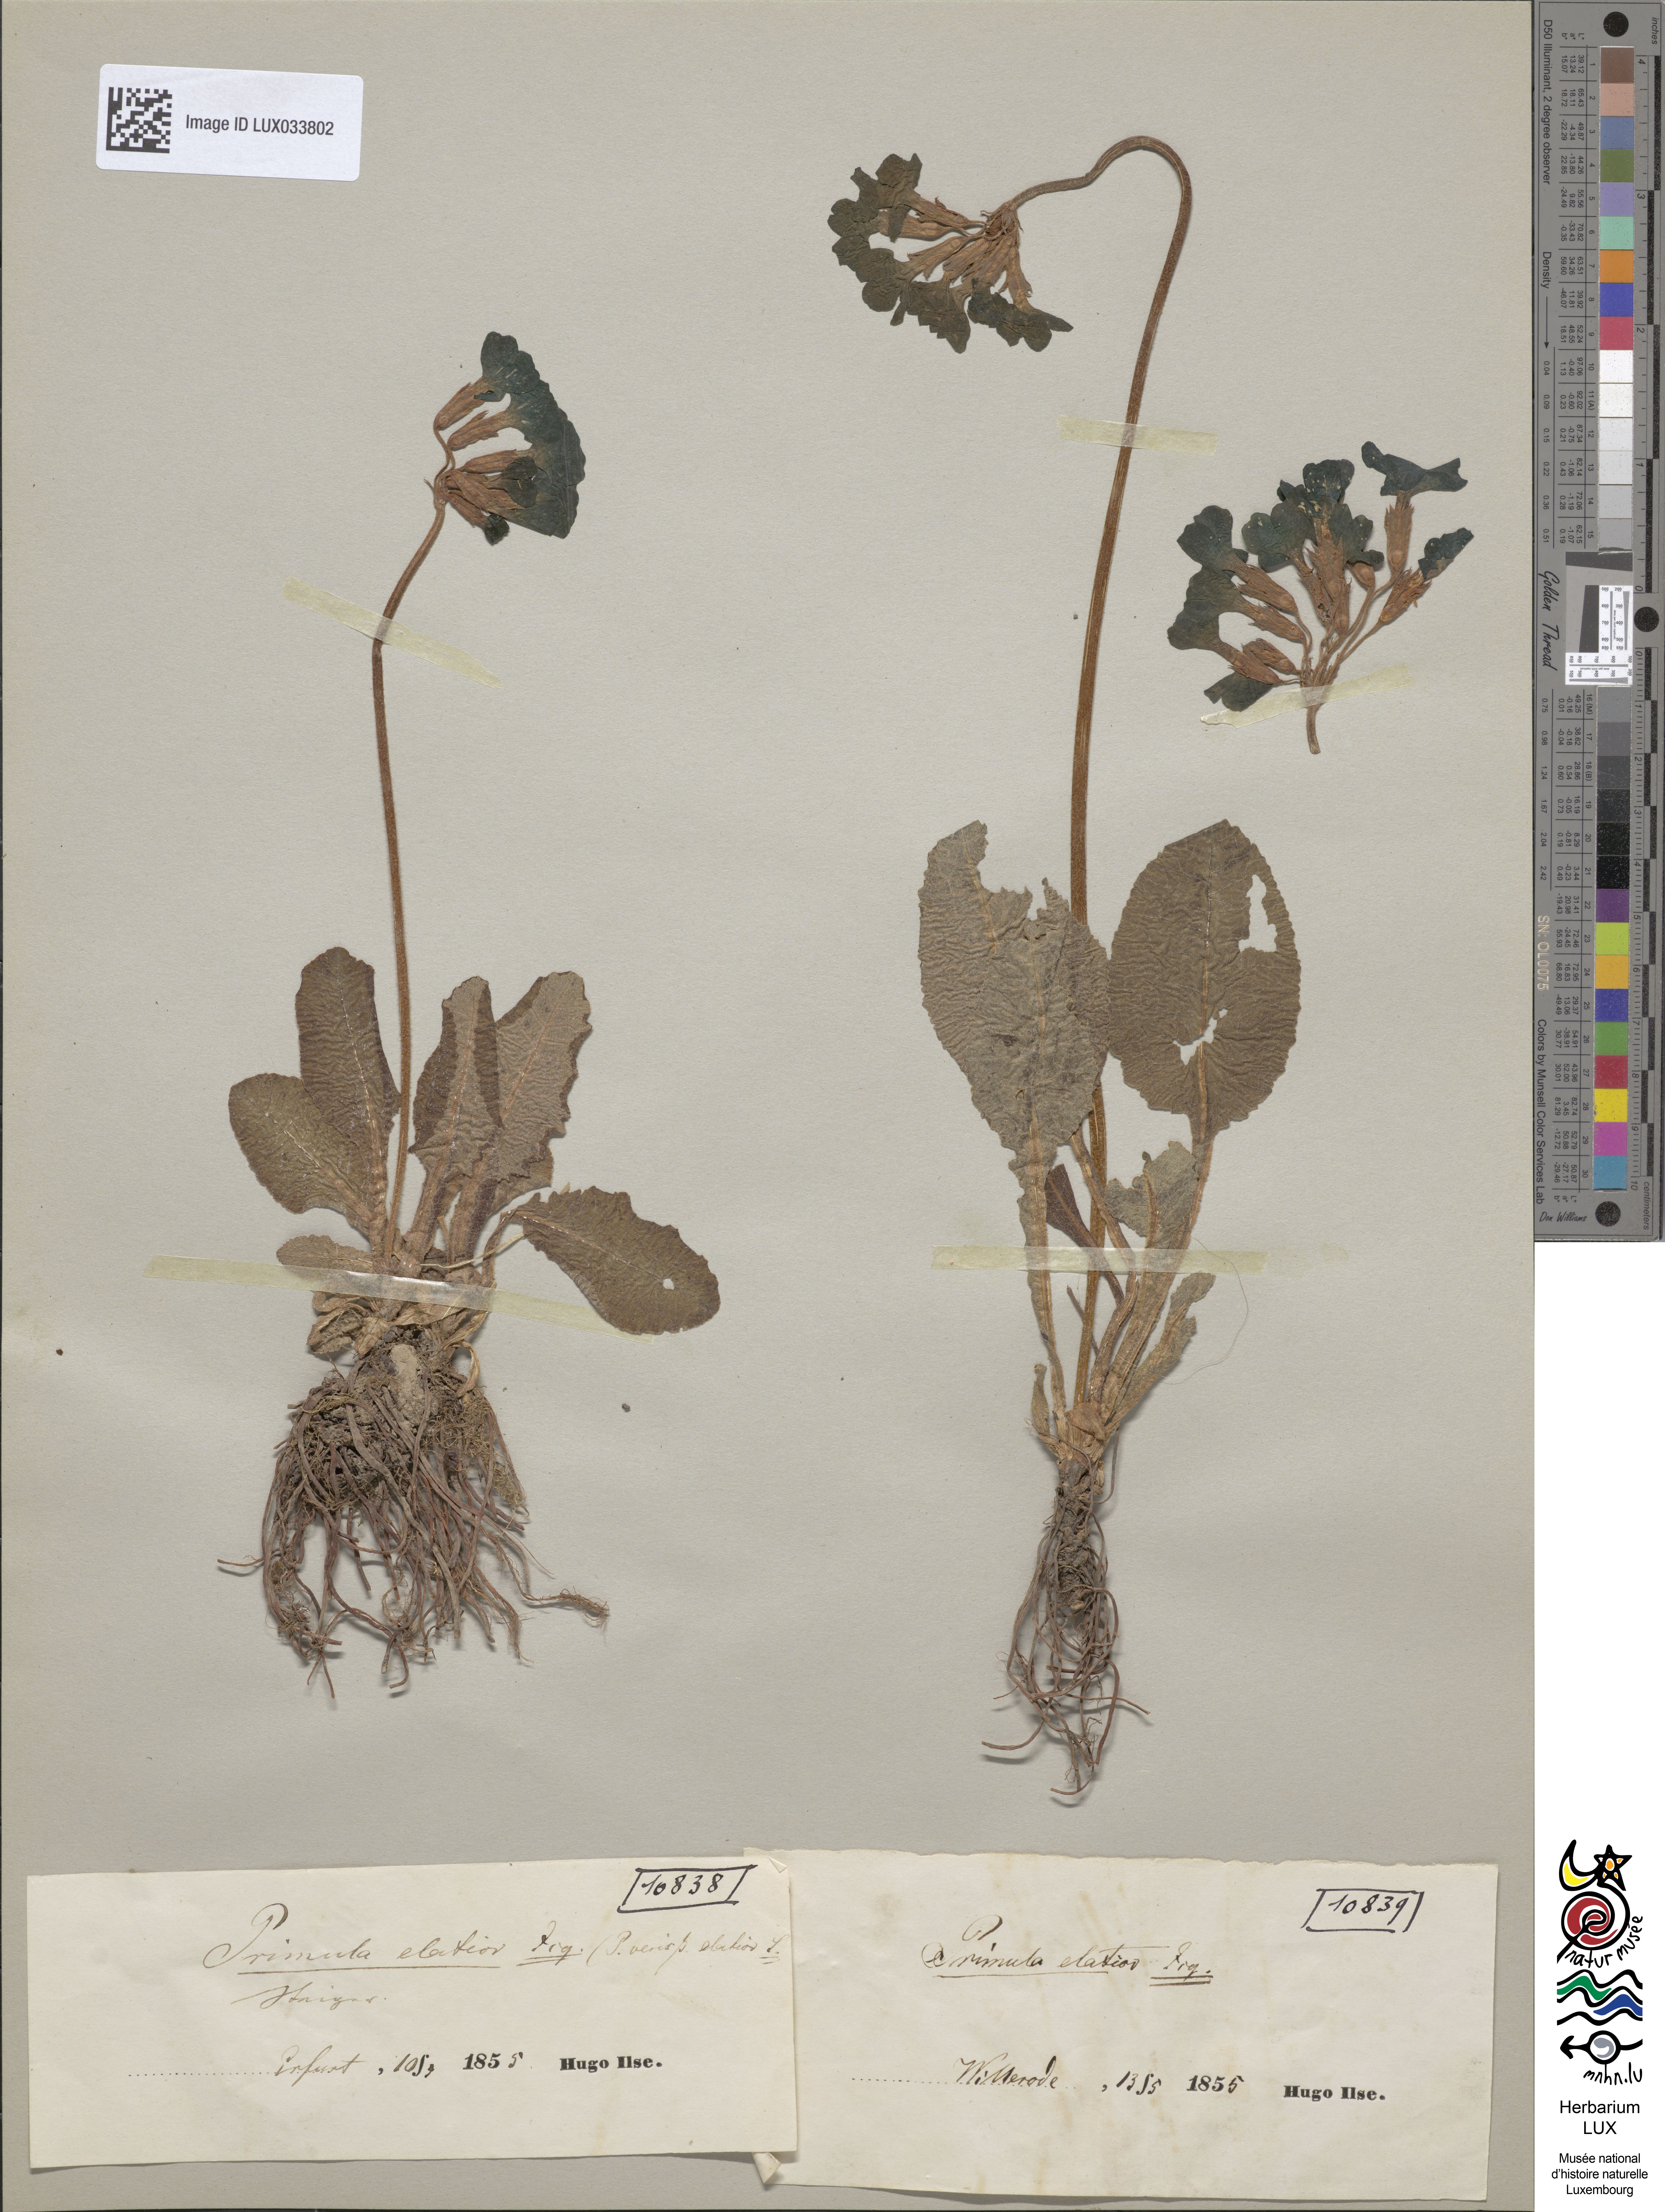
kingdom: Plantae
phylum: Tracheophyta
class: Magnoliopsida
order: Ericales
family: Primulaceae
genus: Primula
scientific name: Primula elatior
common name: Oxlip
